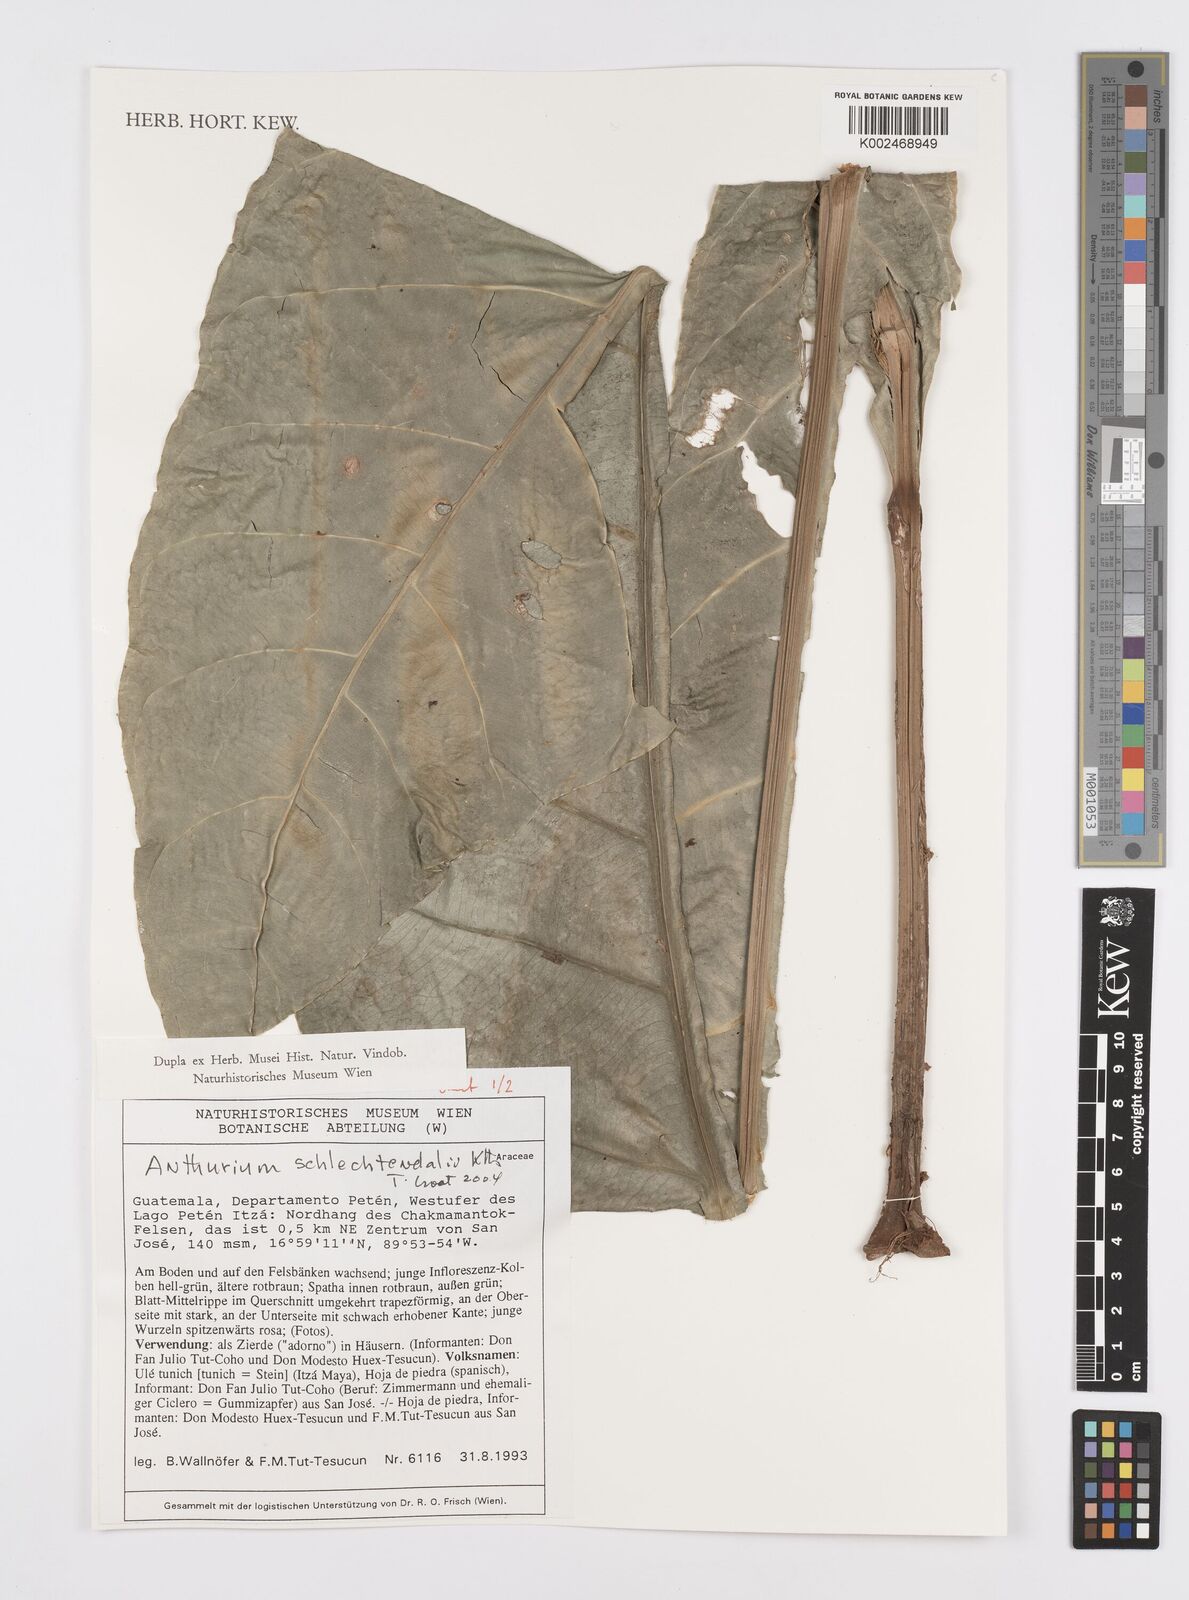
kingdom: Plantae
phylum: Tracheophyta
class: Liliopsida
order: Alismatales
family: Araceae
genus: Anthurium
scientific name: Anthurium schlechtendalii
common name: Laceleaf
